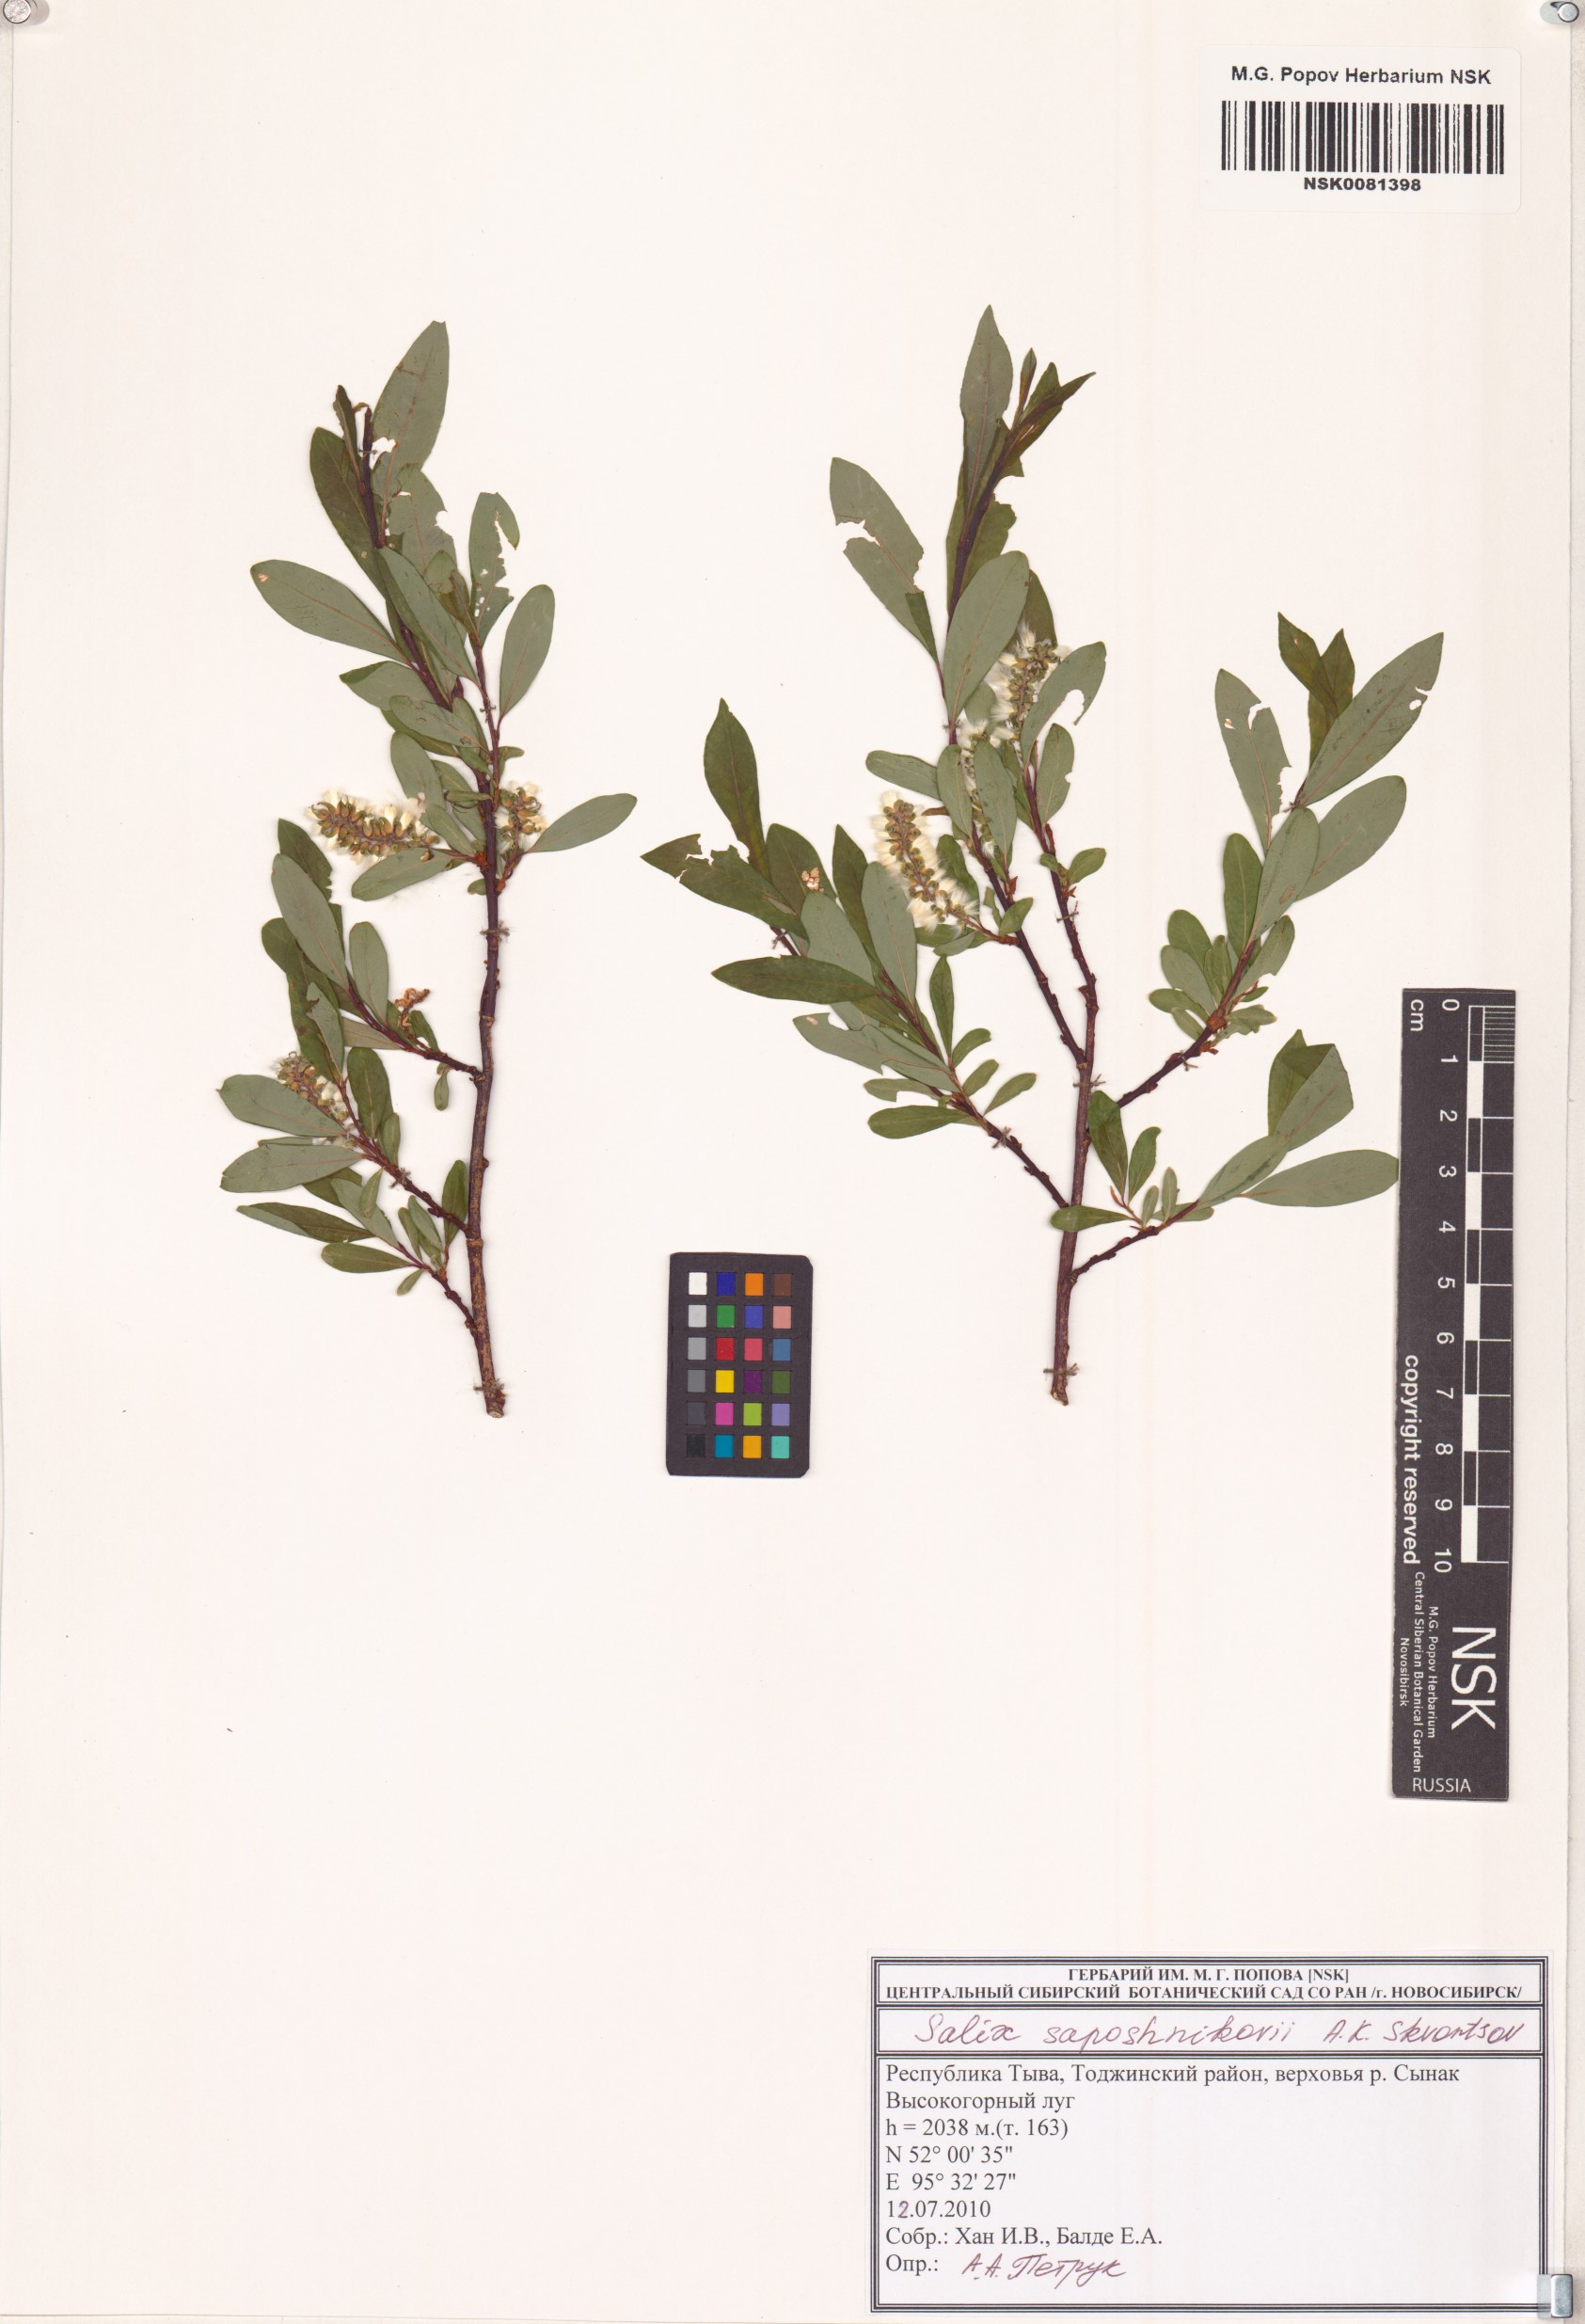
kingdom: Plantae
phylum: Tracheophyta
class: Magnoliopsida
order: Malpighiales
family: Salicaceae
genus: Salix
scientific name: Salix saposhnikovii
